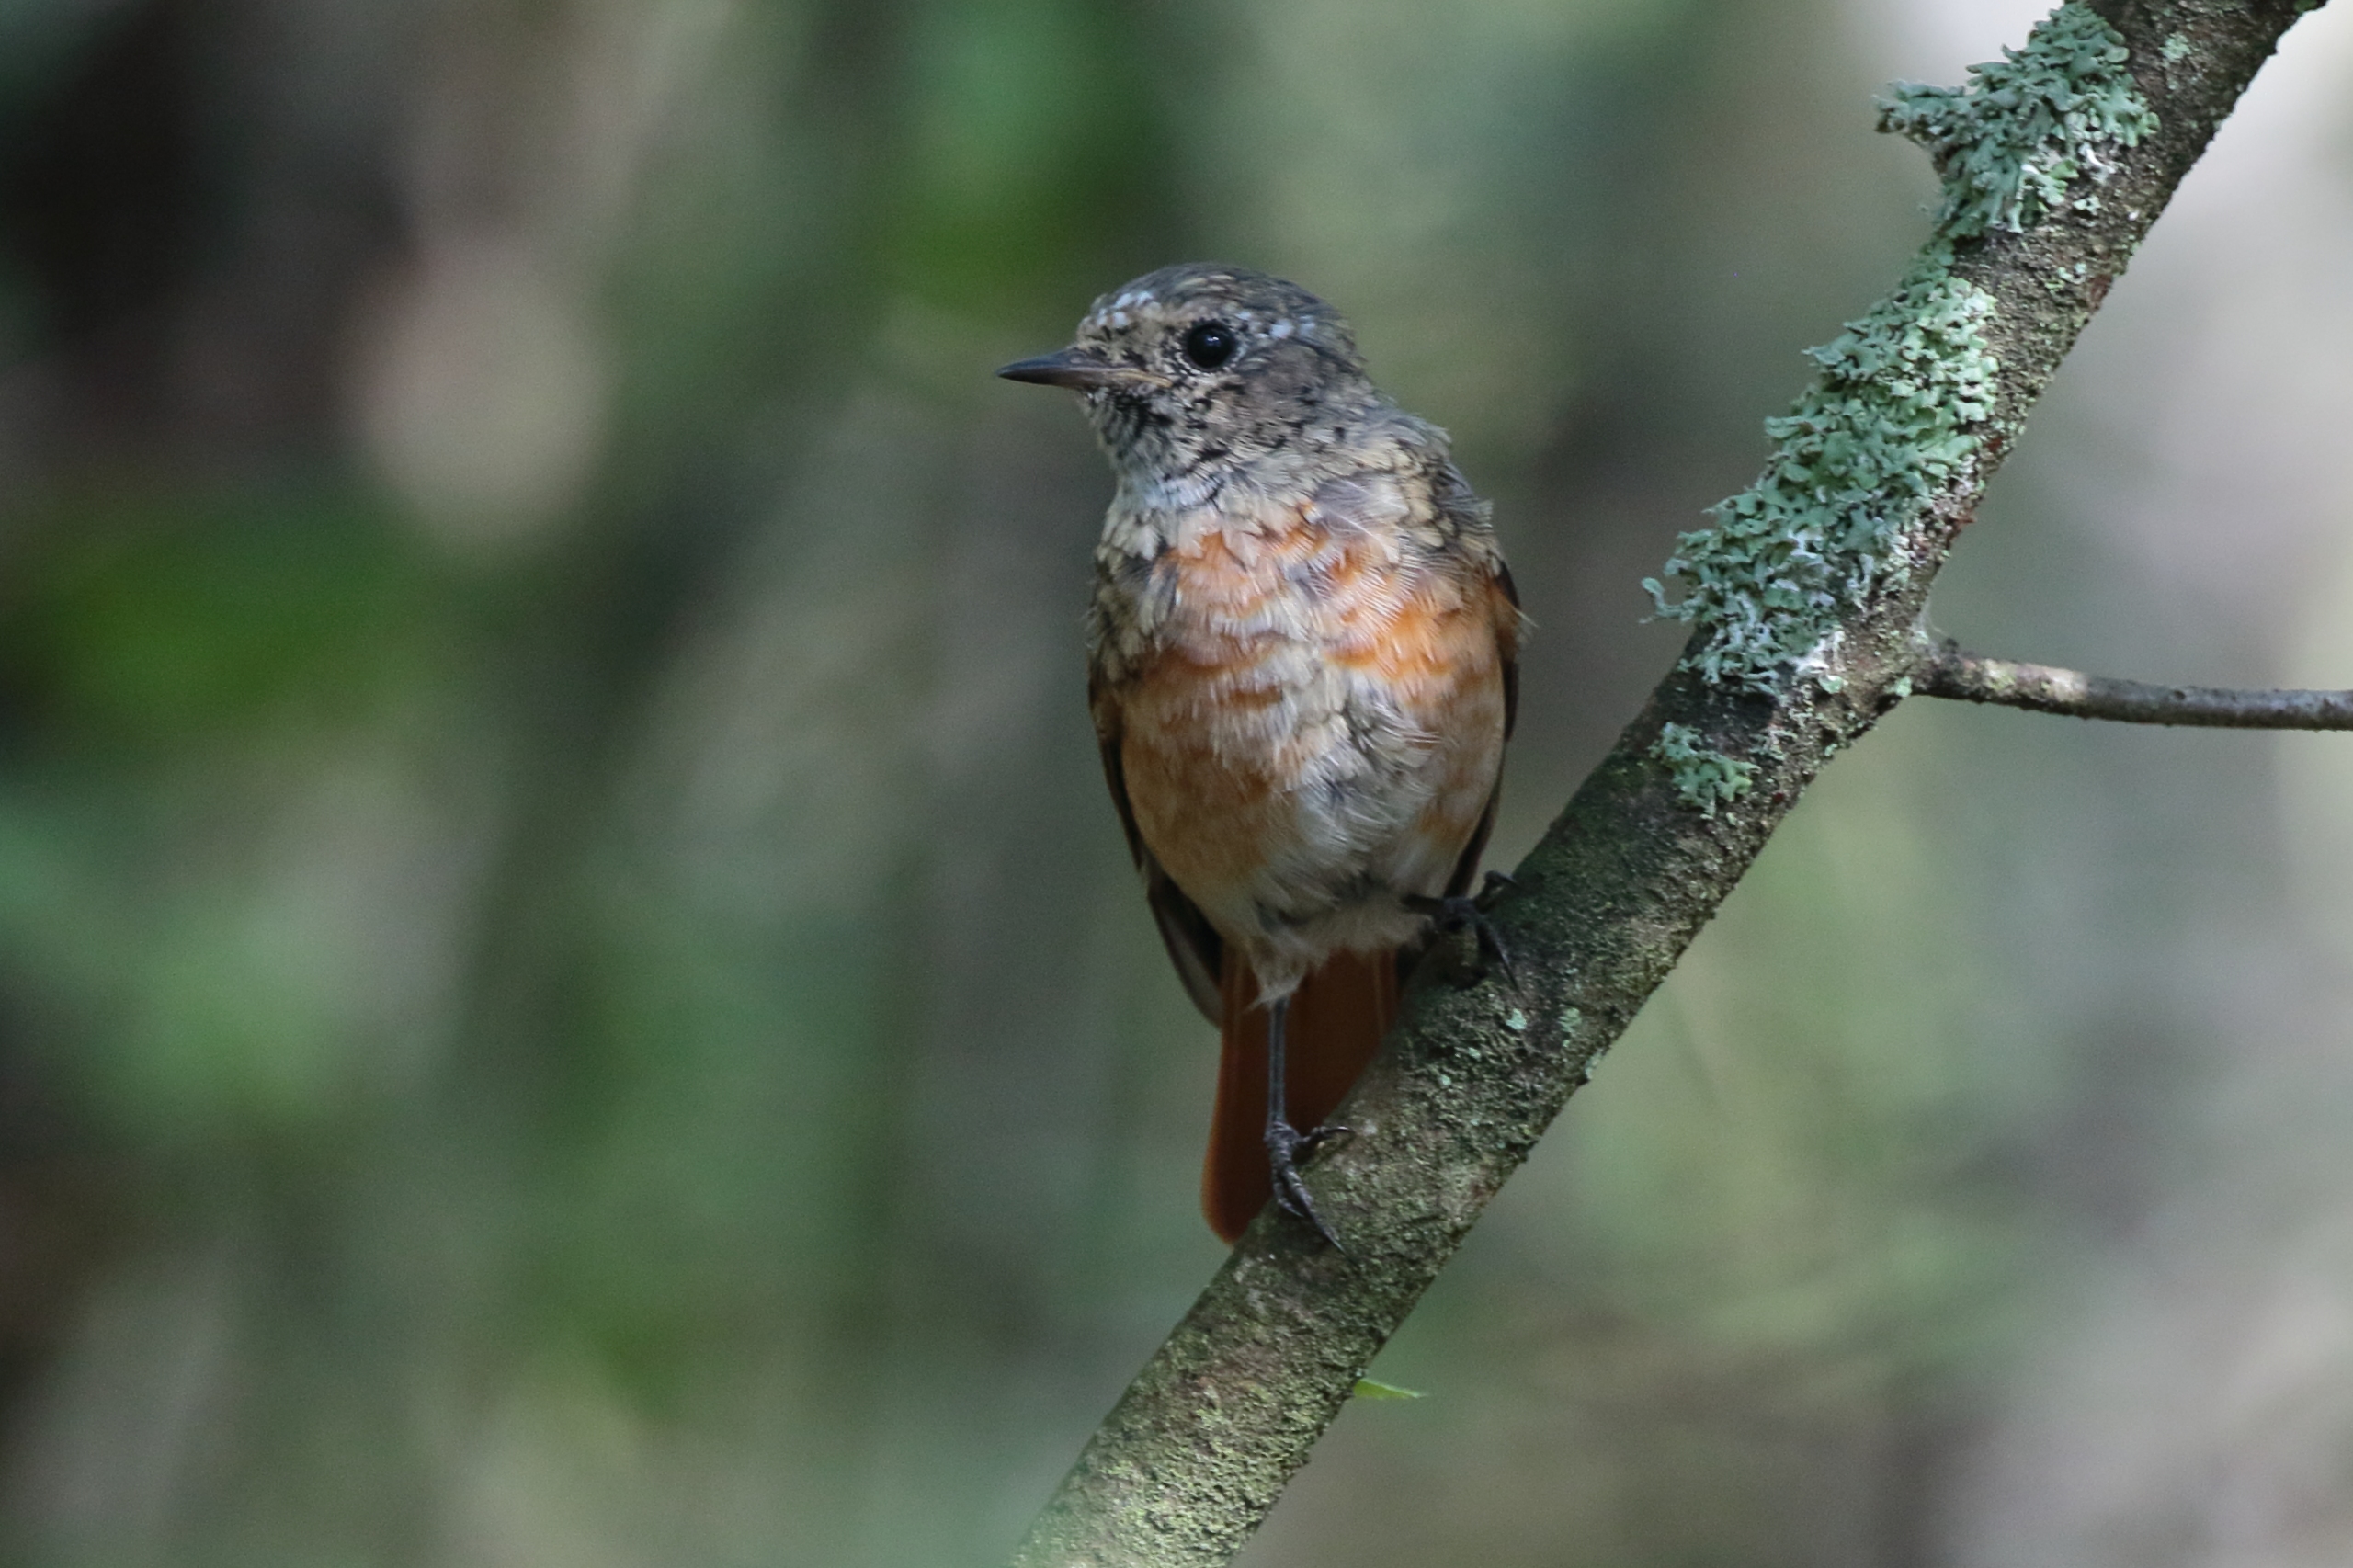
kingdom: Animalia
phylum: Chordata
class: Aves
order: Passeriformes
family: Muscicapidae
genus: Phoenicurus
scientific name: Phoenicurus phoenicurus
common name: Rødstjert
